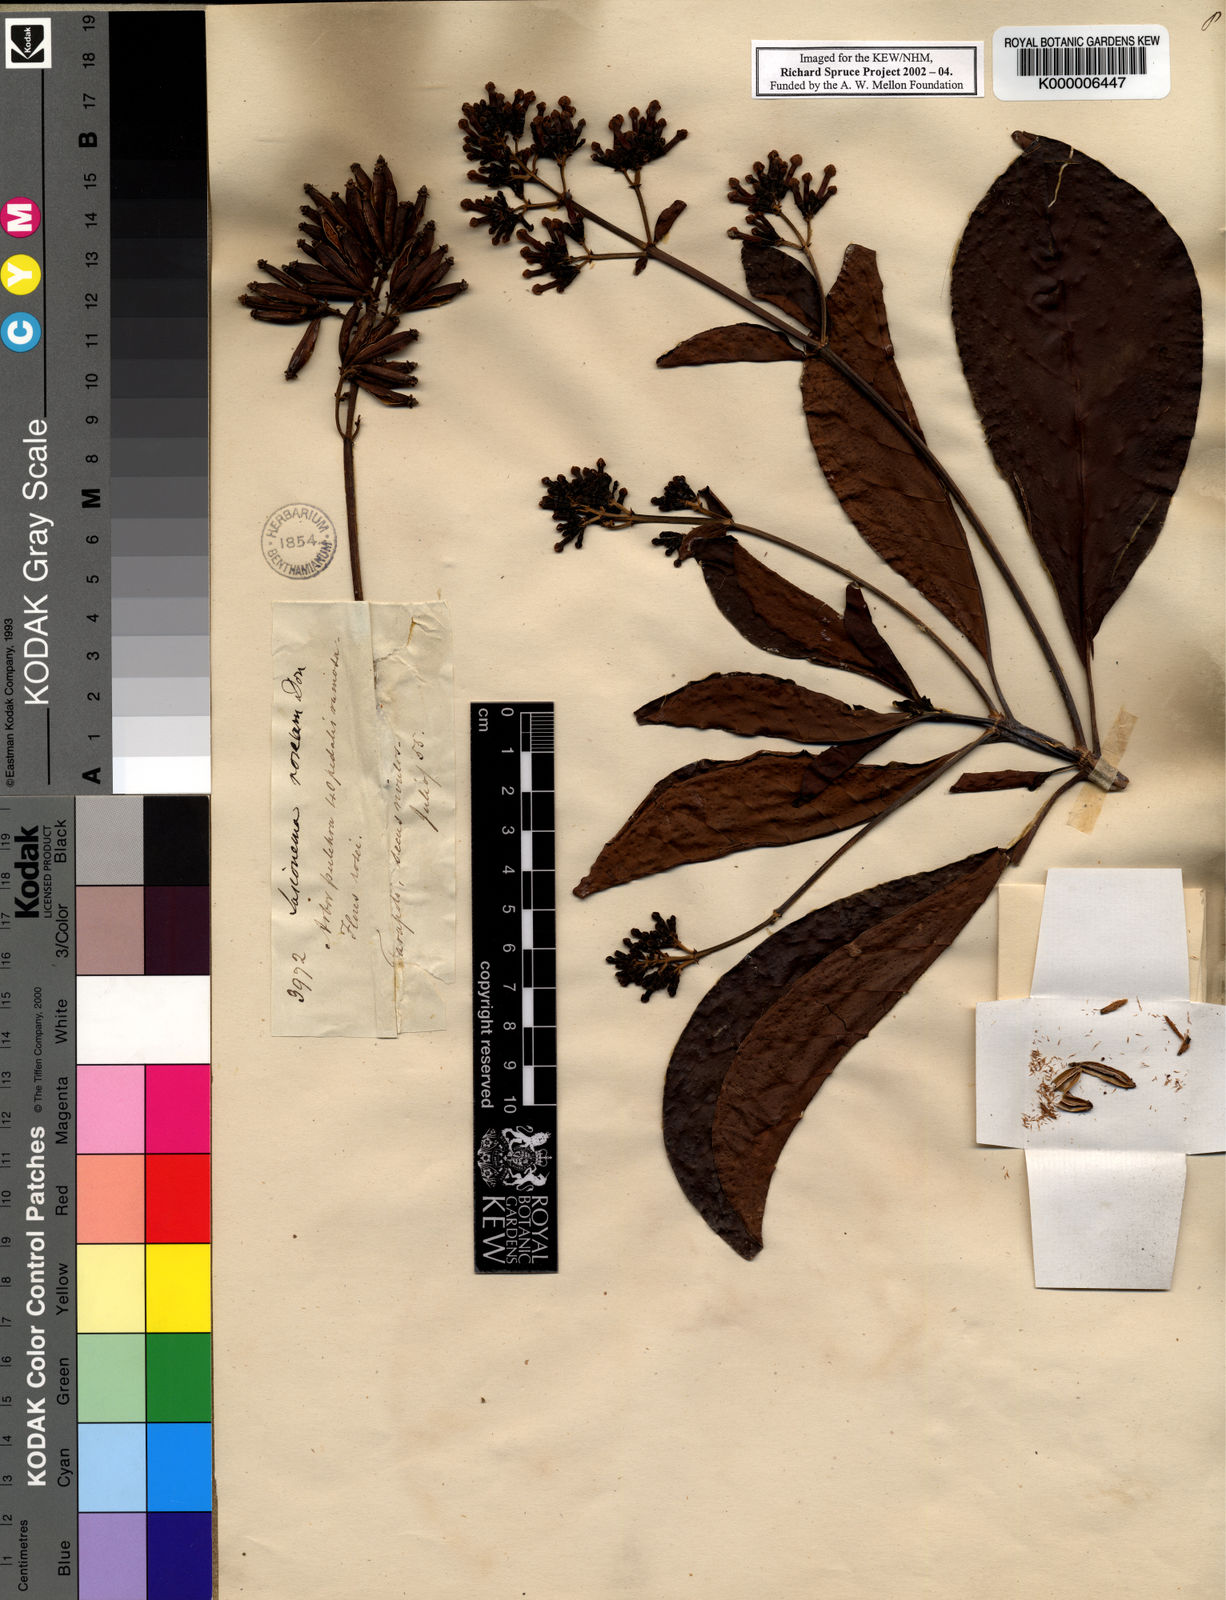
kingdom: Plantae
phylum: Tracheophyta
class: Magnoliopsida
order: Gentianales
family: Rubiaceae
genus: Macrocnemum
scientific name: Macrocnemum roseum
